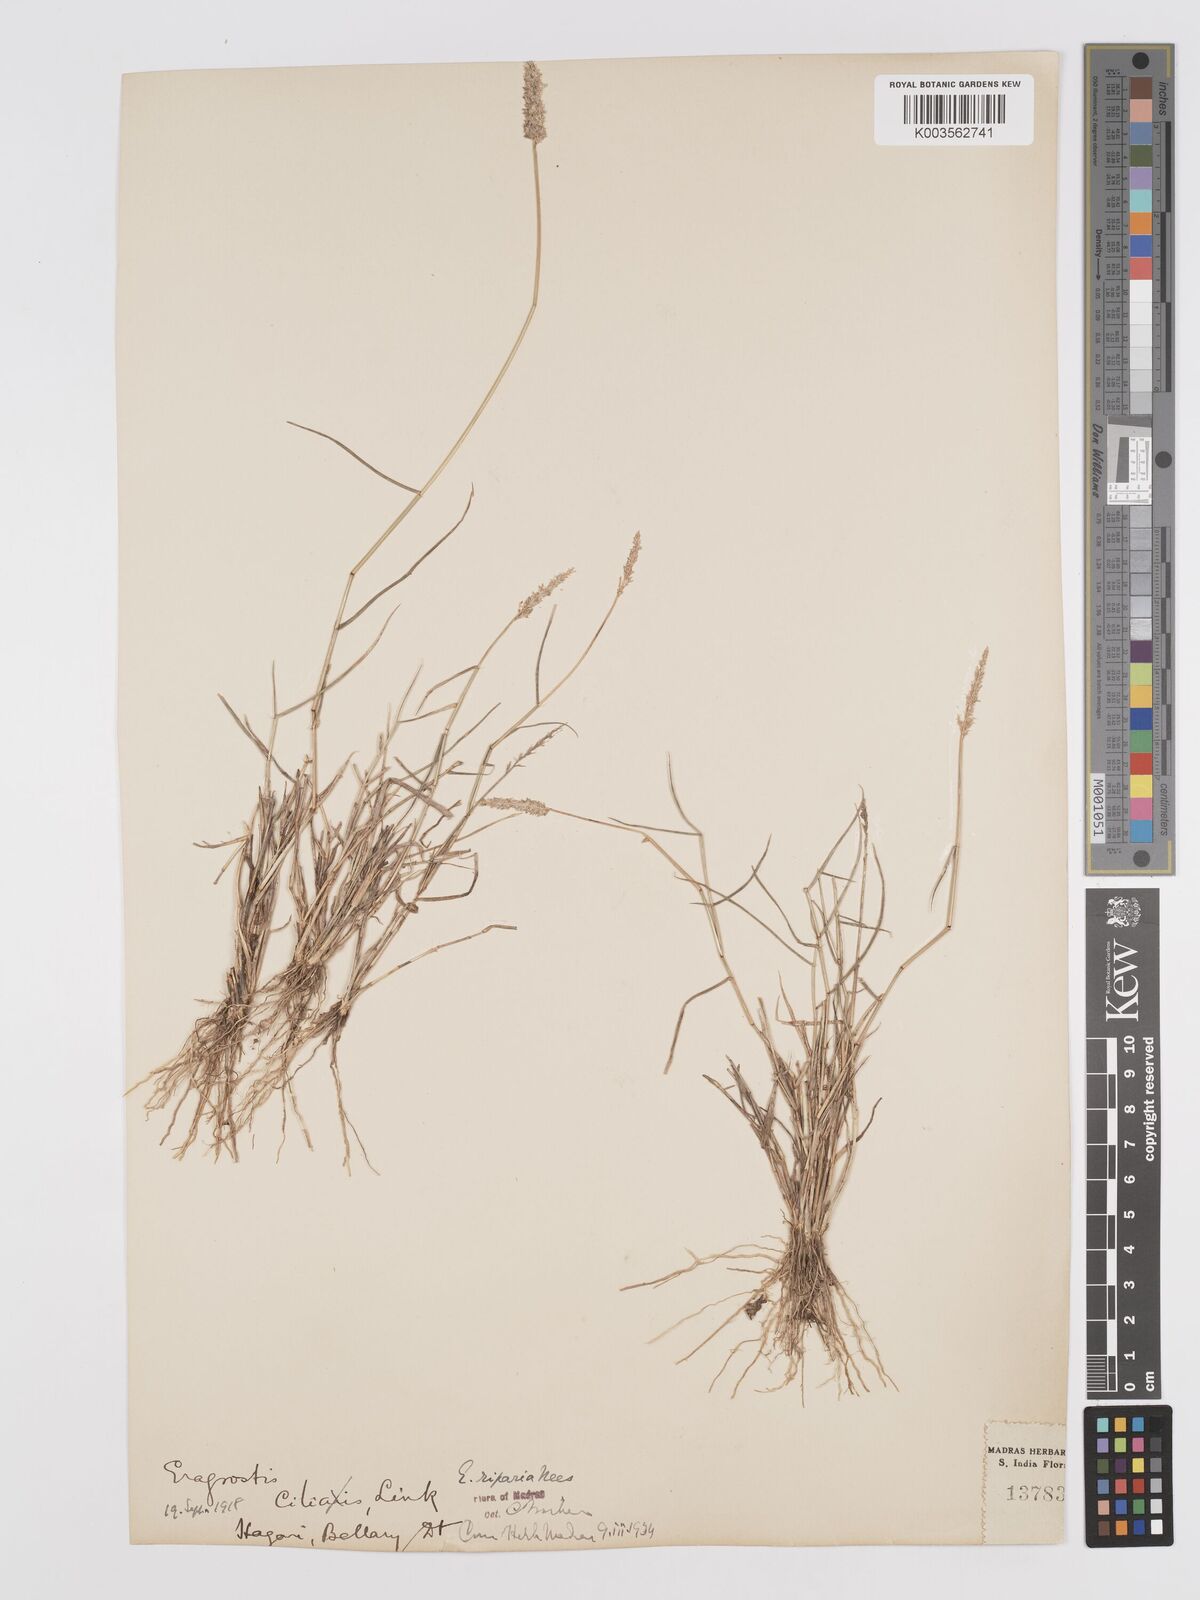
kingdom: Plantae
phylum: Tracheophyta
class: Liliopsida
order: Poales
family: Poaceae
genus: Eragrostis
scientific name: Eragrostis riparia
